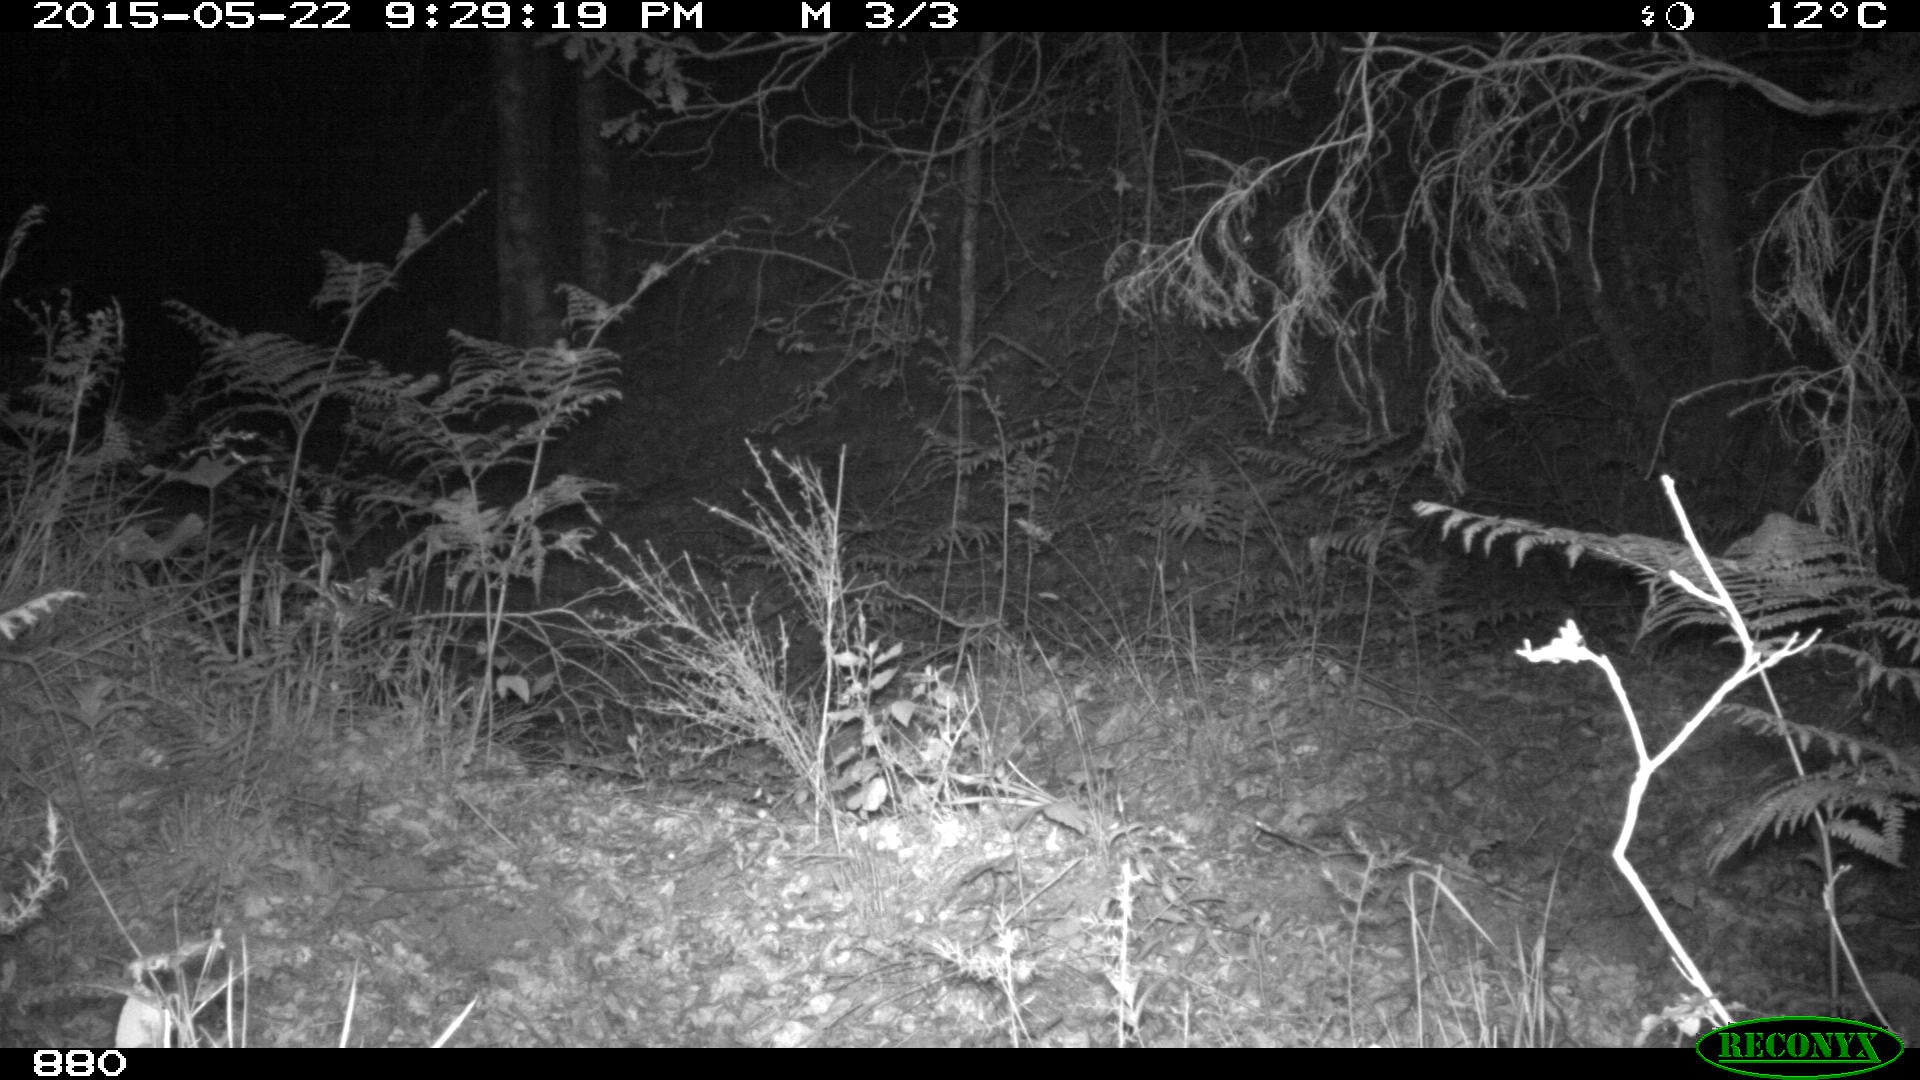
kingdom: Animalia
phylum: Chordata
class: Mammalia
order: Artiodactyla
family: Suidae
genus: Sus
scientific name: Sus scrofa
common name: Wild boar
